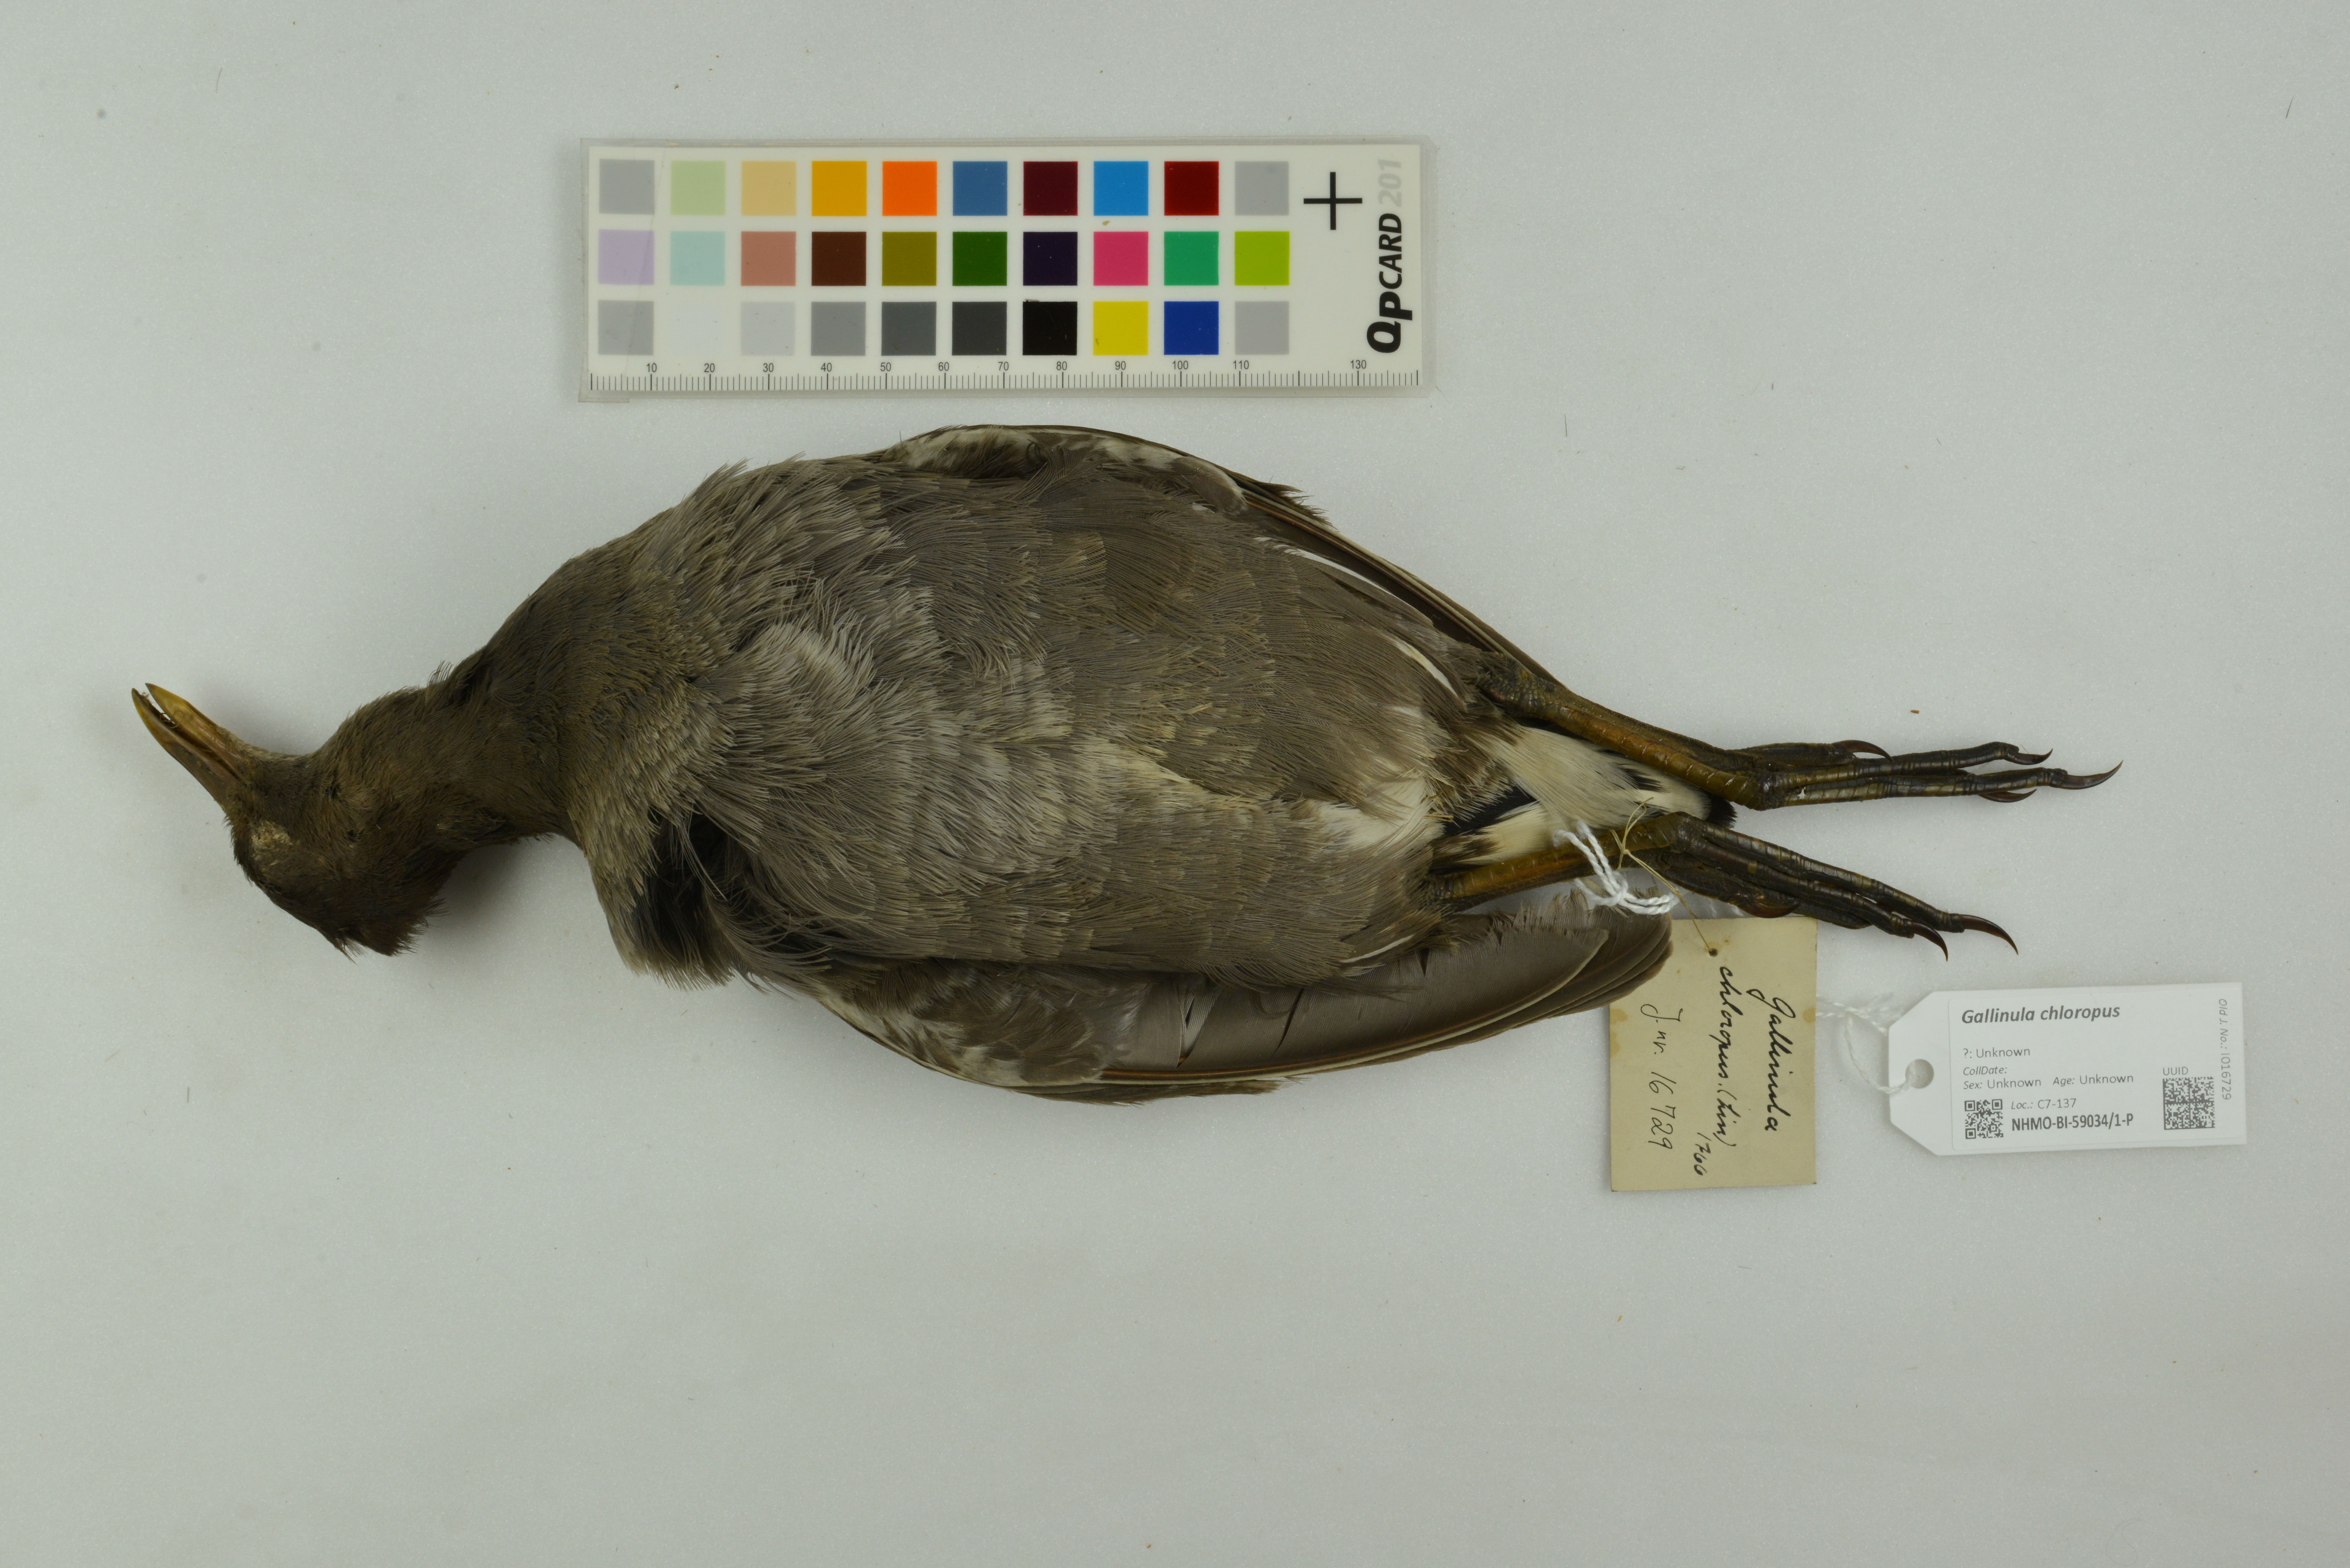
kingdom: Animalia
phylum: Chordata
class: Aves
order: Gruiformes
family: Rallidae
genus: Gallinula
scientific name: Gallinula chloropus
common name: Common moorhen
